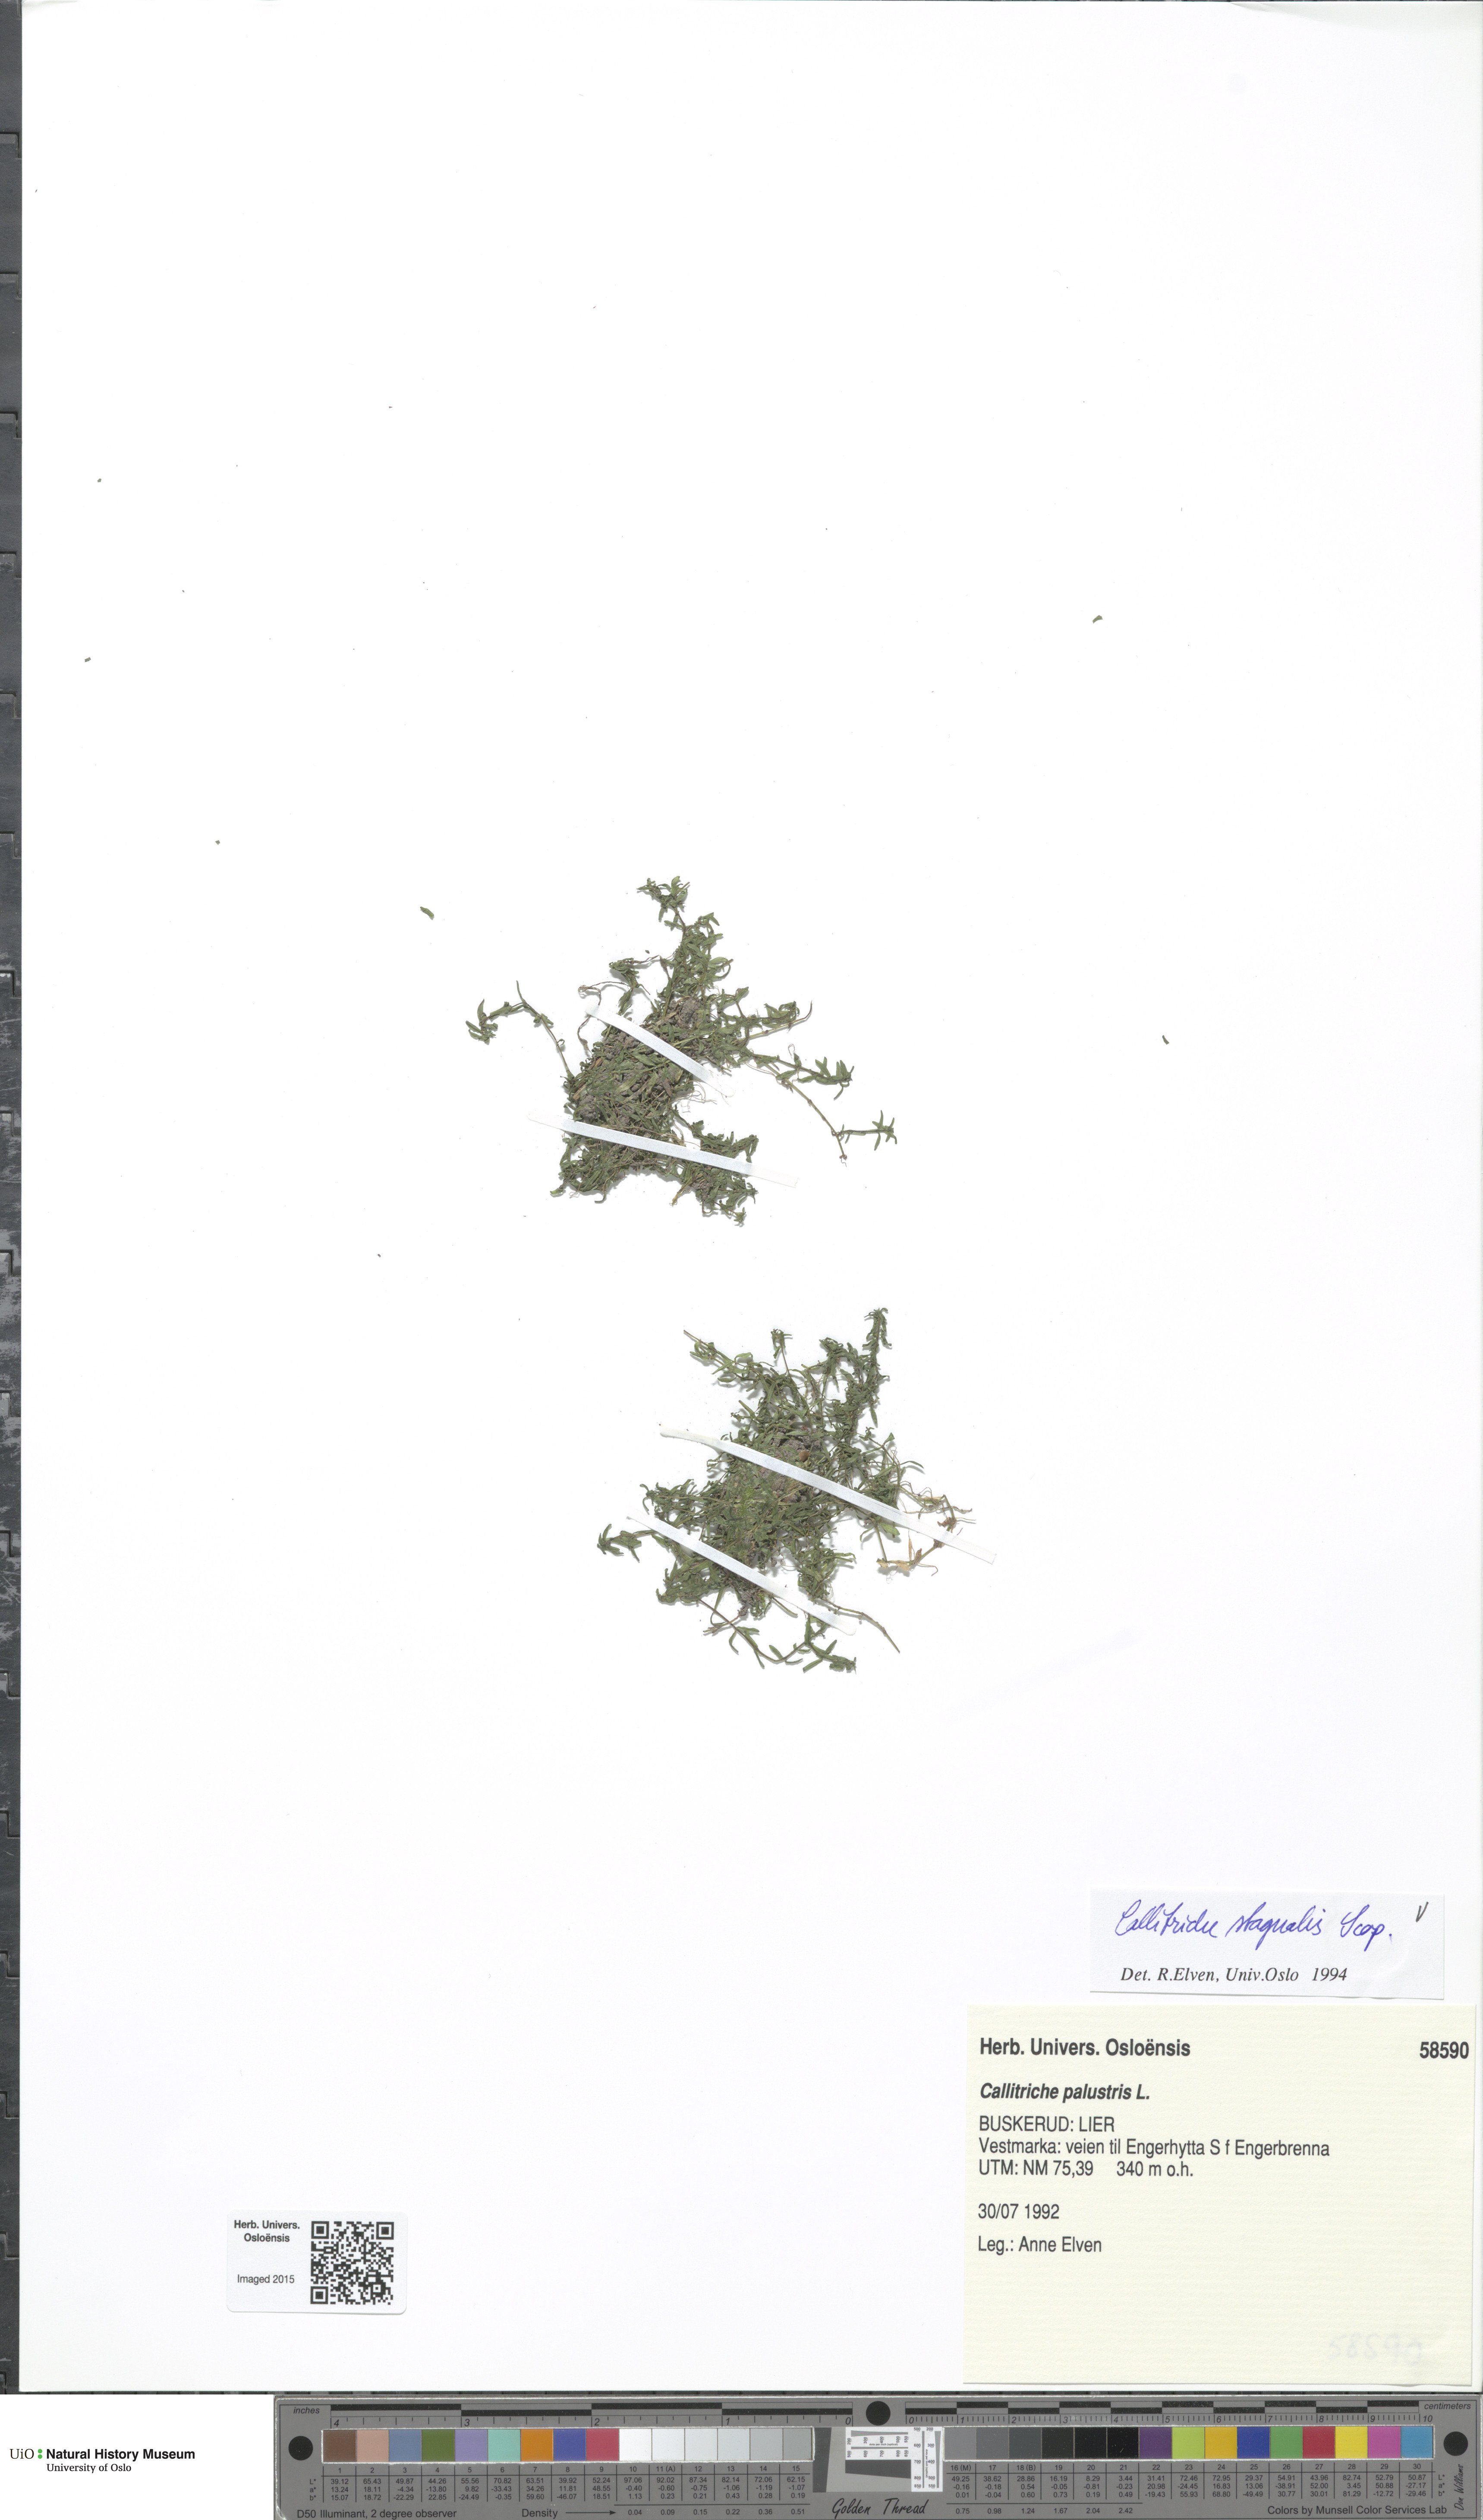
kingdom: Plantae
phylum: Tracheophyta
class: Magnoliopsida
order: Lamiales
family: Plantaginaceae
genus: Callitriche
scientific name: Callitriche stagnalis
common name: Common water-starwort
